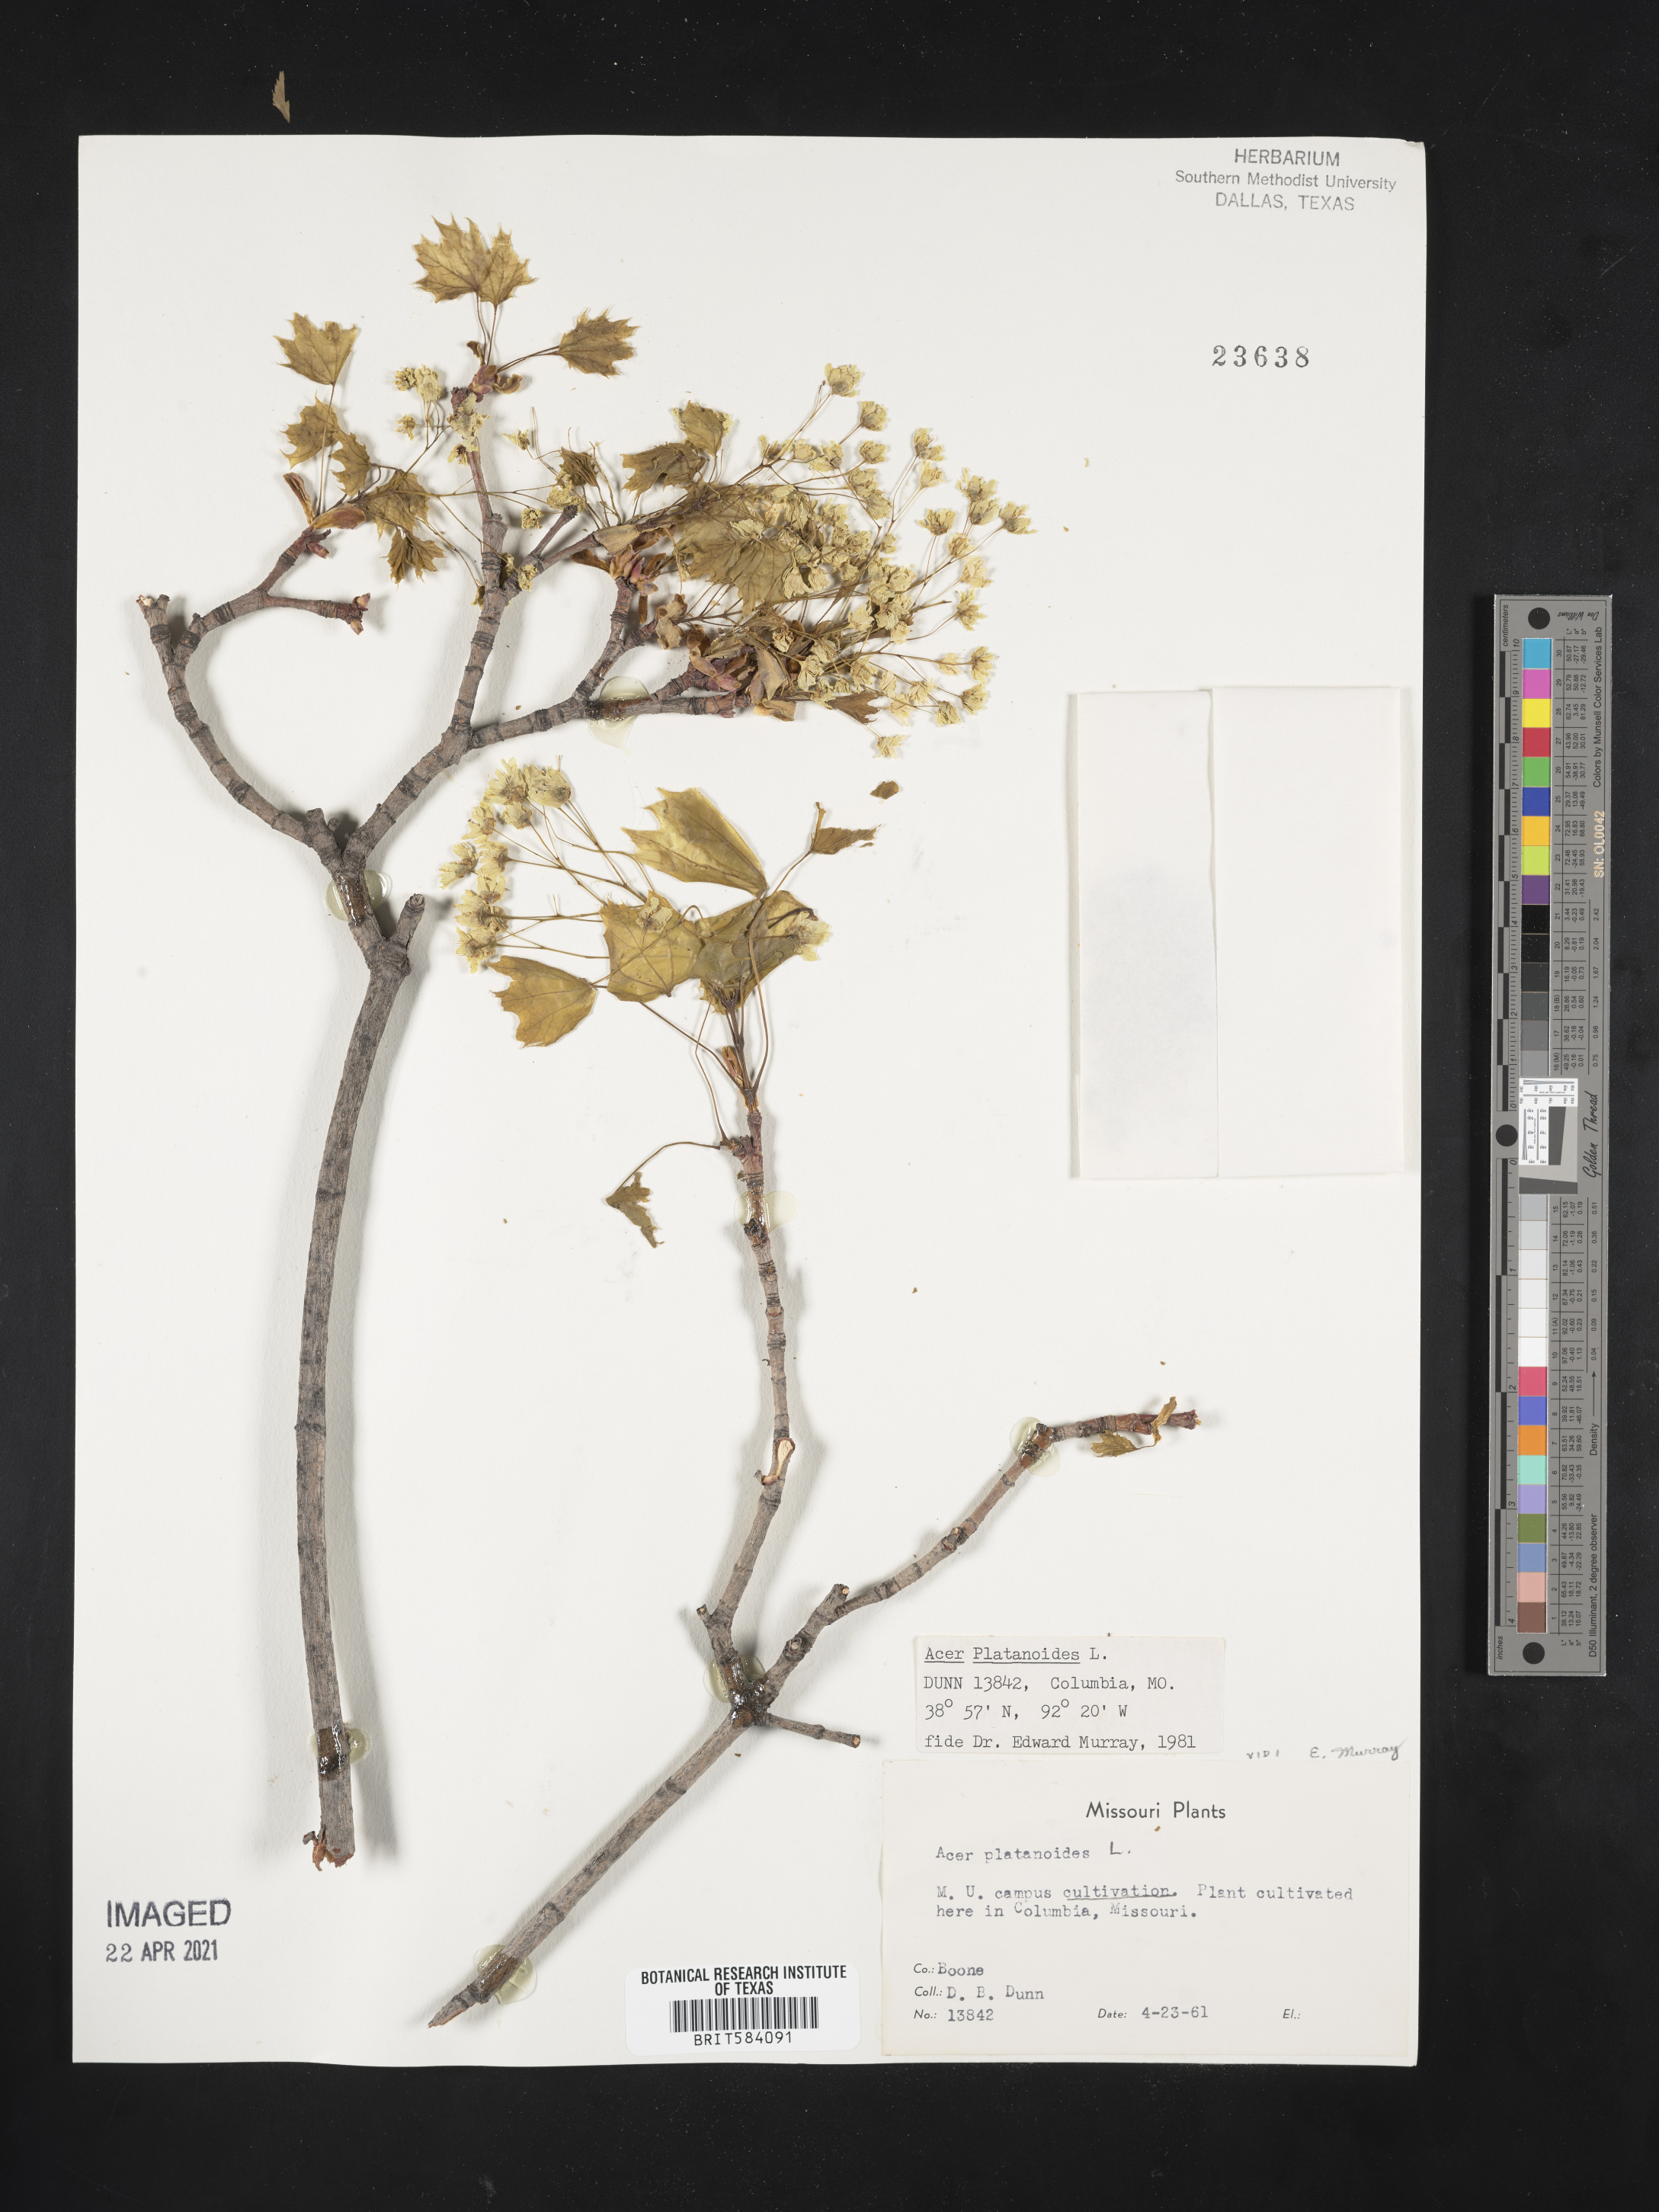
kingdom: Plantae
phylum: Tracheophyta
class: Magnoliopsida
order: Sapindales
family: Sapindaceae
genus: Acer
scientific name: Acer platanoides
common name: Norway maple
